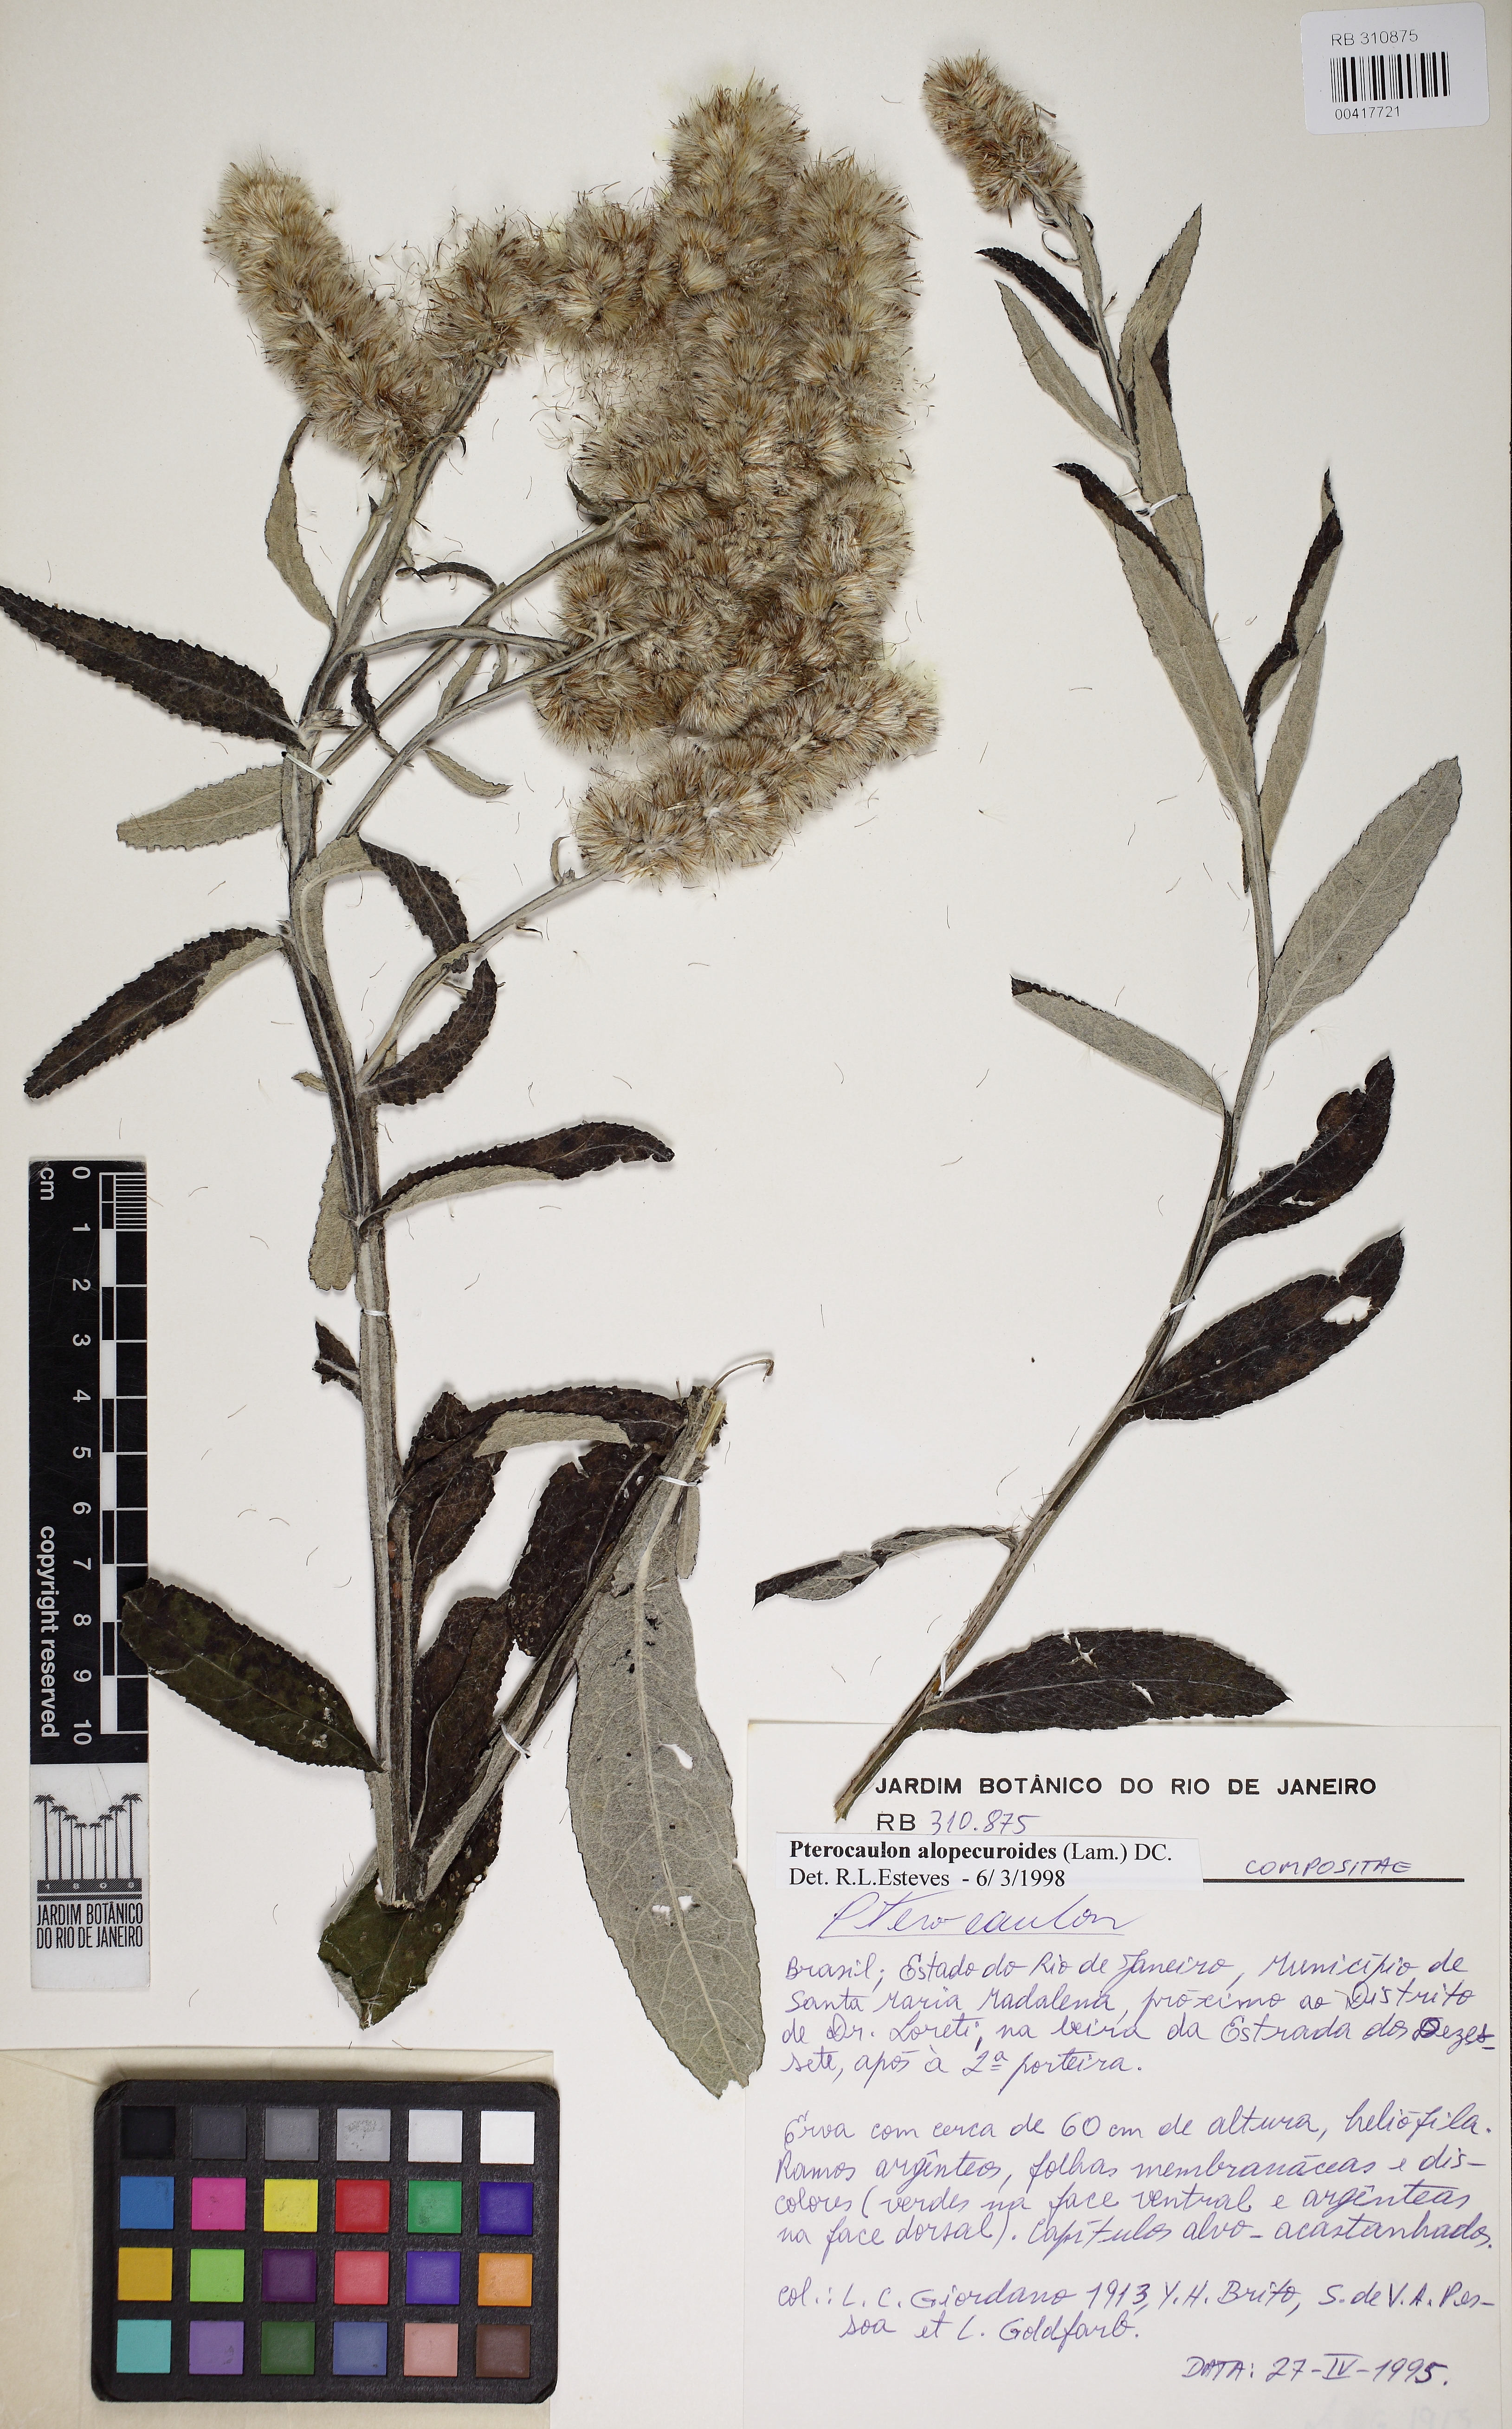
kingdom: Plantae
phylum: Tracheophyta
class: Magnoliopsida
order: Asterales
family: Asteraceae
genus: Pterocaulon
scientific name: Pterocaulon balansae
